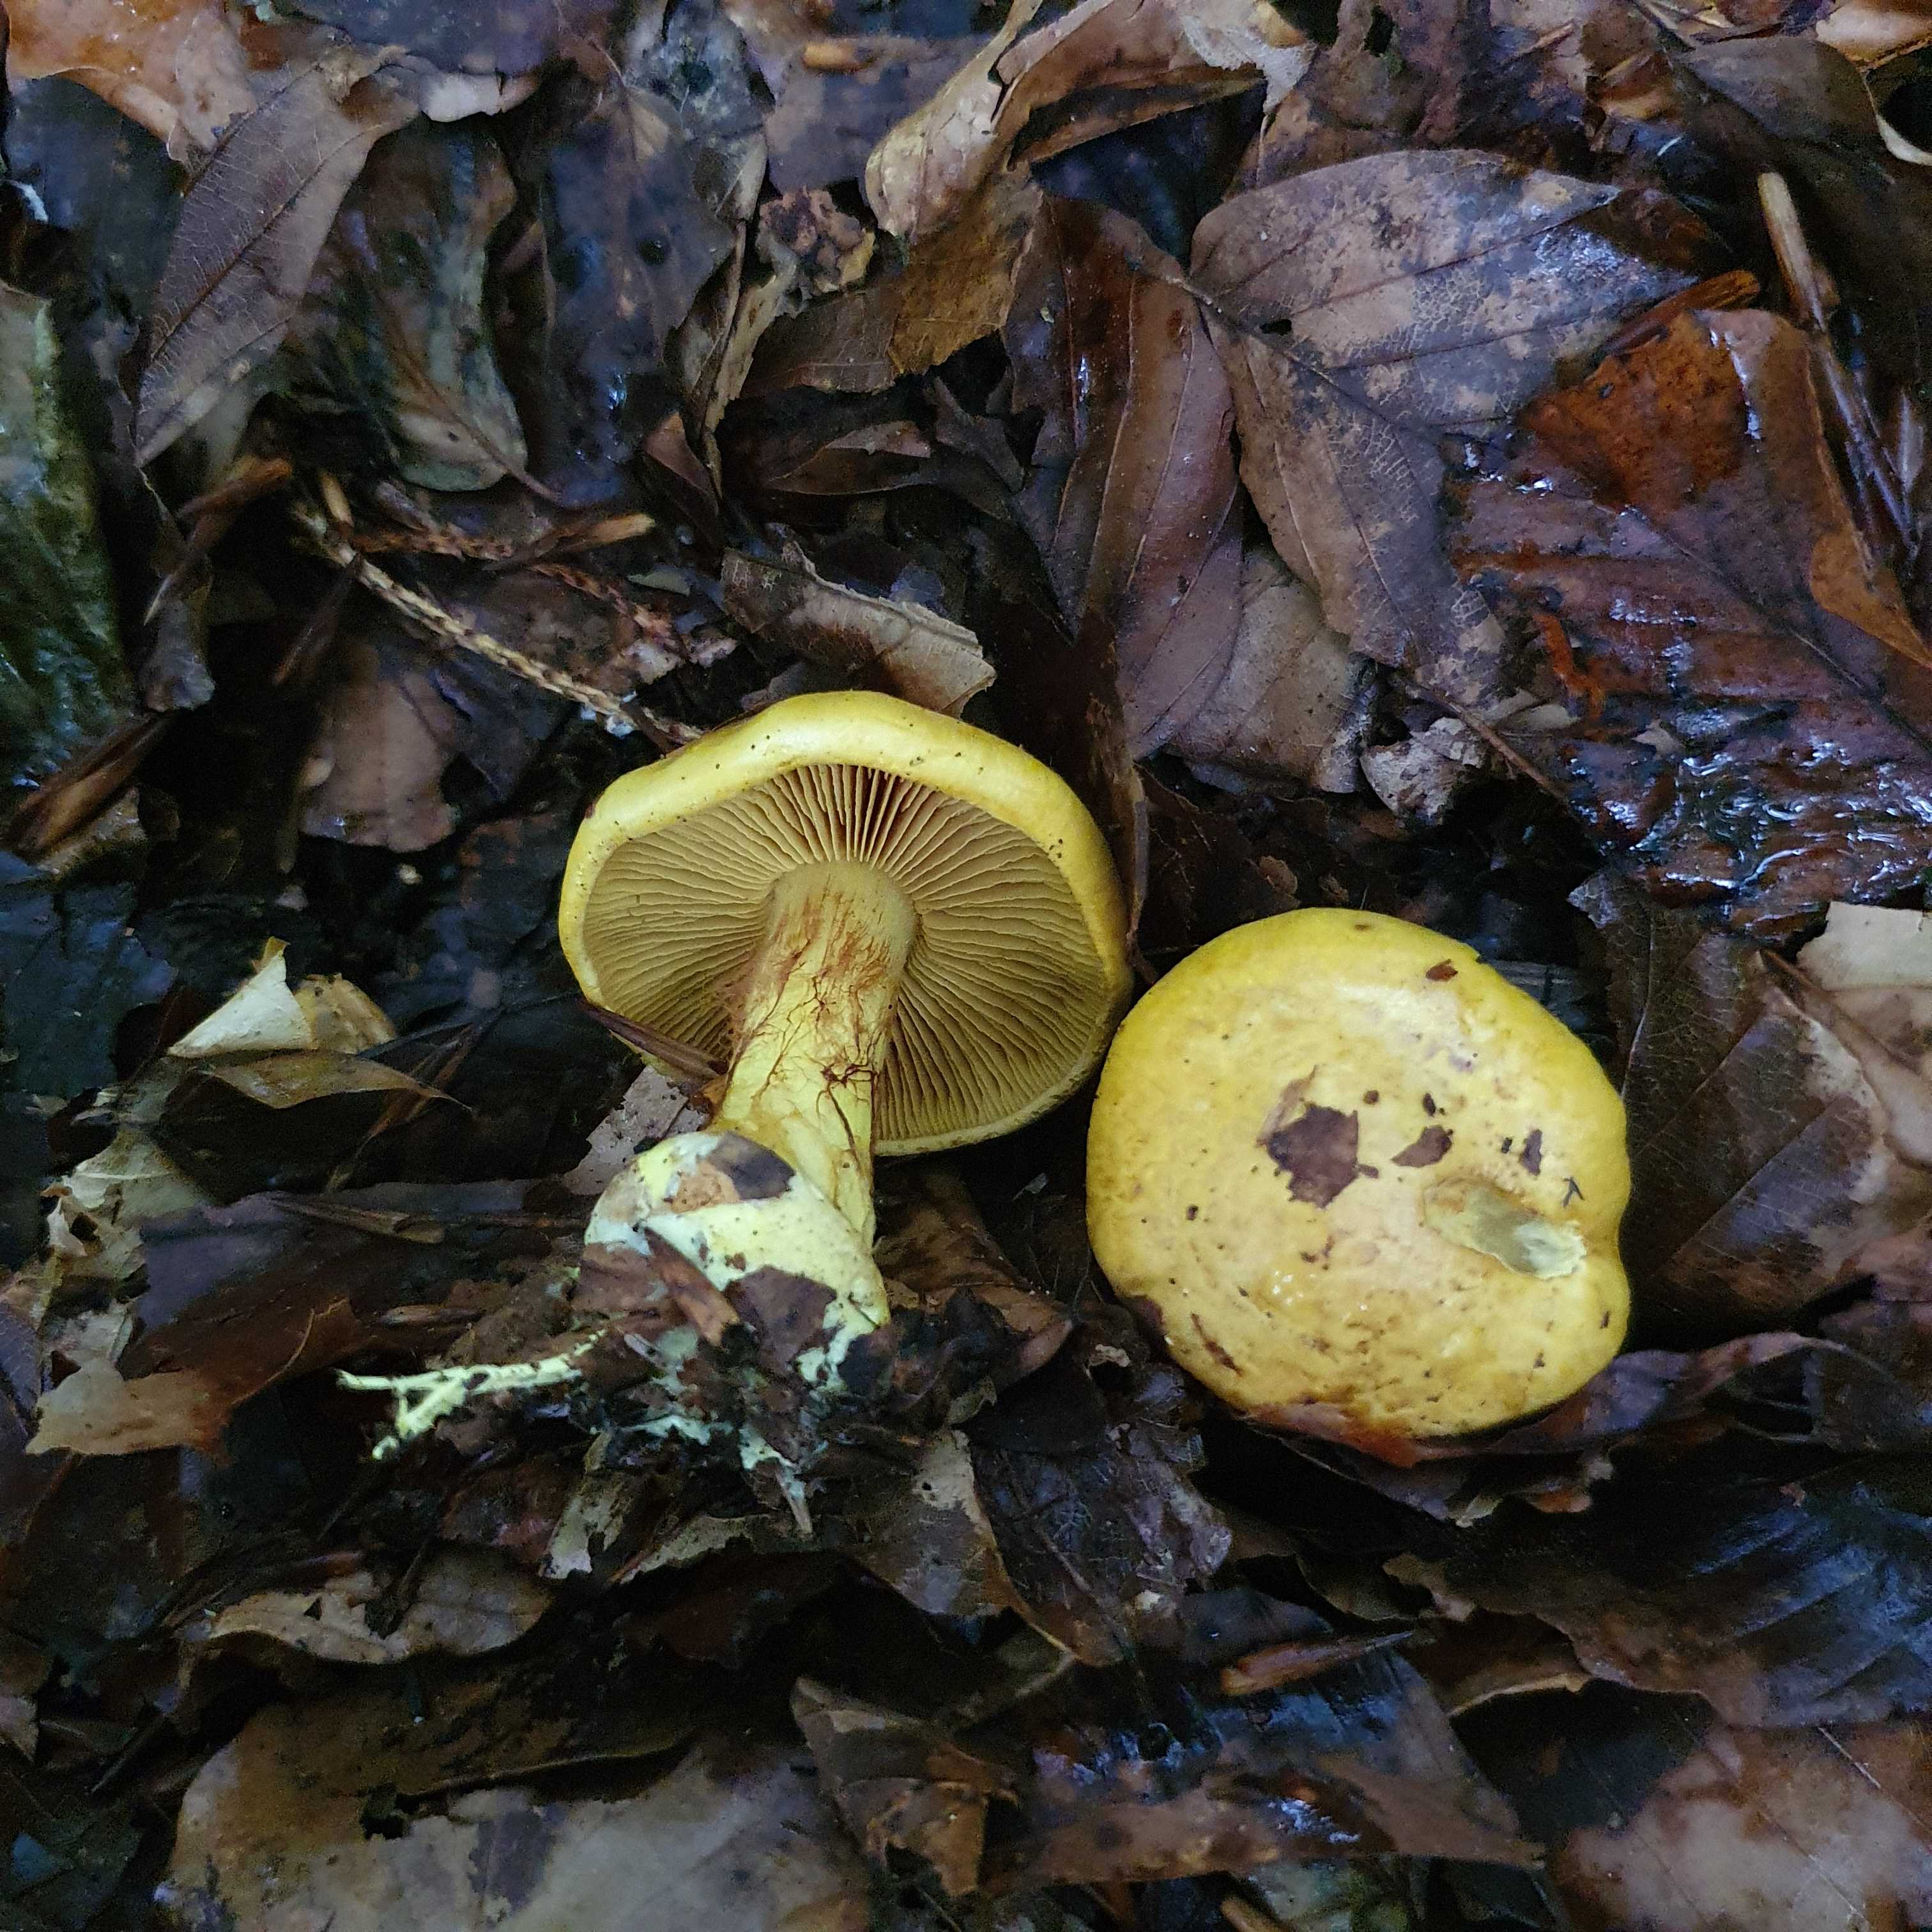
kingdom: Fungi
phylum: Basidiomycota
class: Agaricomycetes
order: Agaricales
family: Cortinariaceae
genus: Calonarius
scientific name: Calonarius splendens
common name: sirene-slørhat
